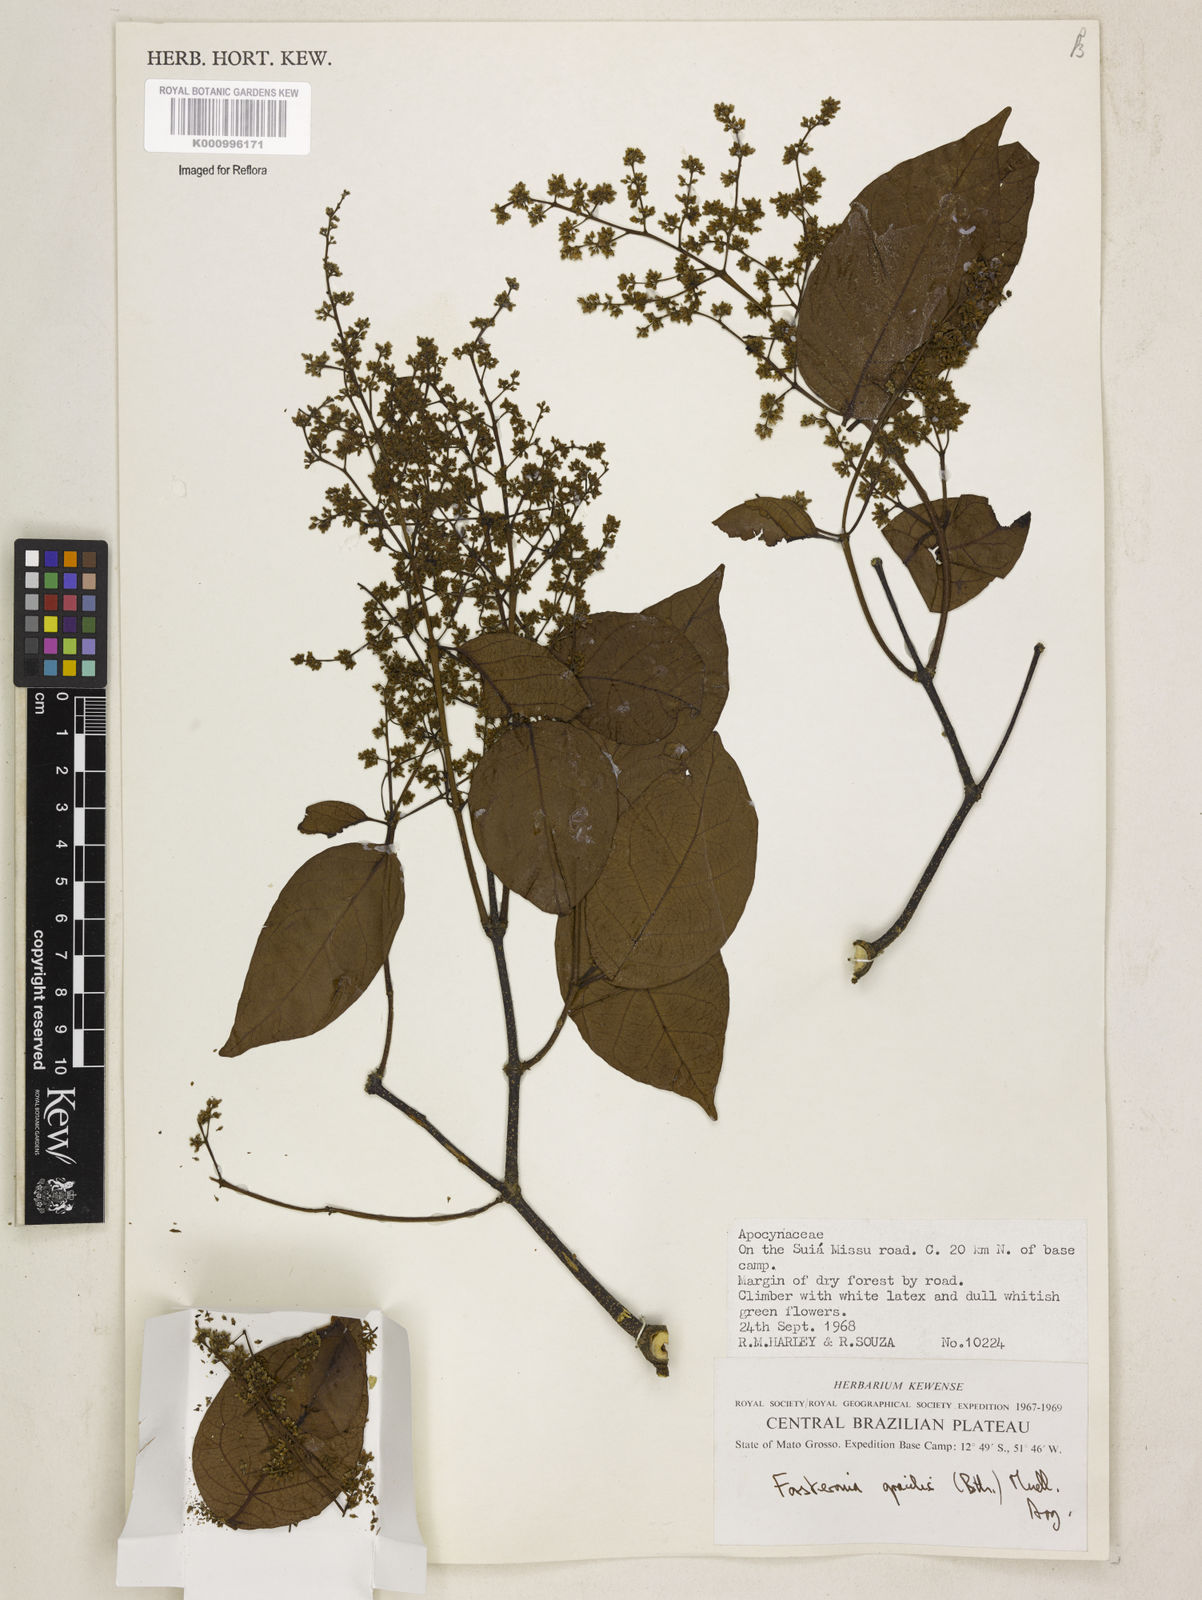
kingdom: Plantae
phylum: Tracheophyta
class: Magnoliopsida
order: Gentianales
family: Apocynaceae
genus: Forsteronia
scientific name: Forsteronia
